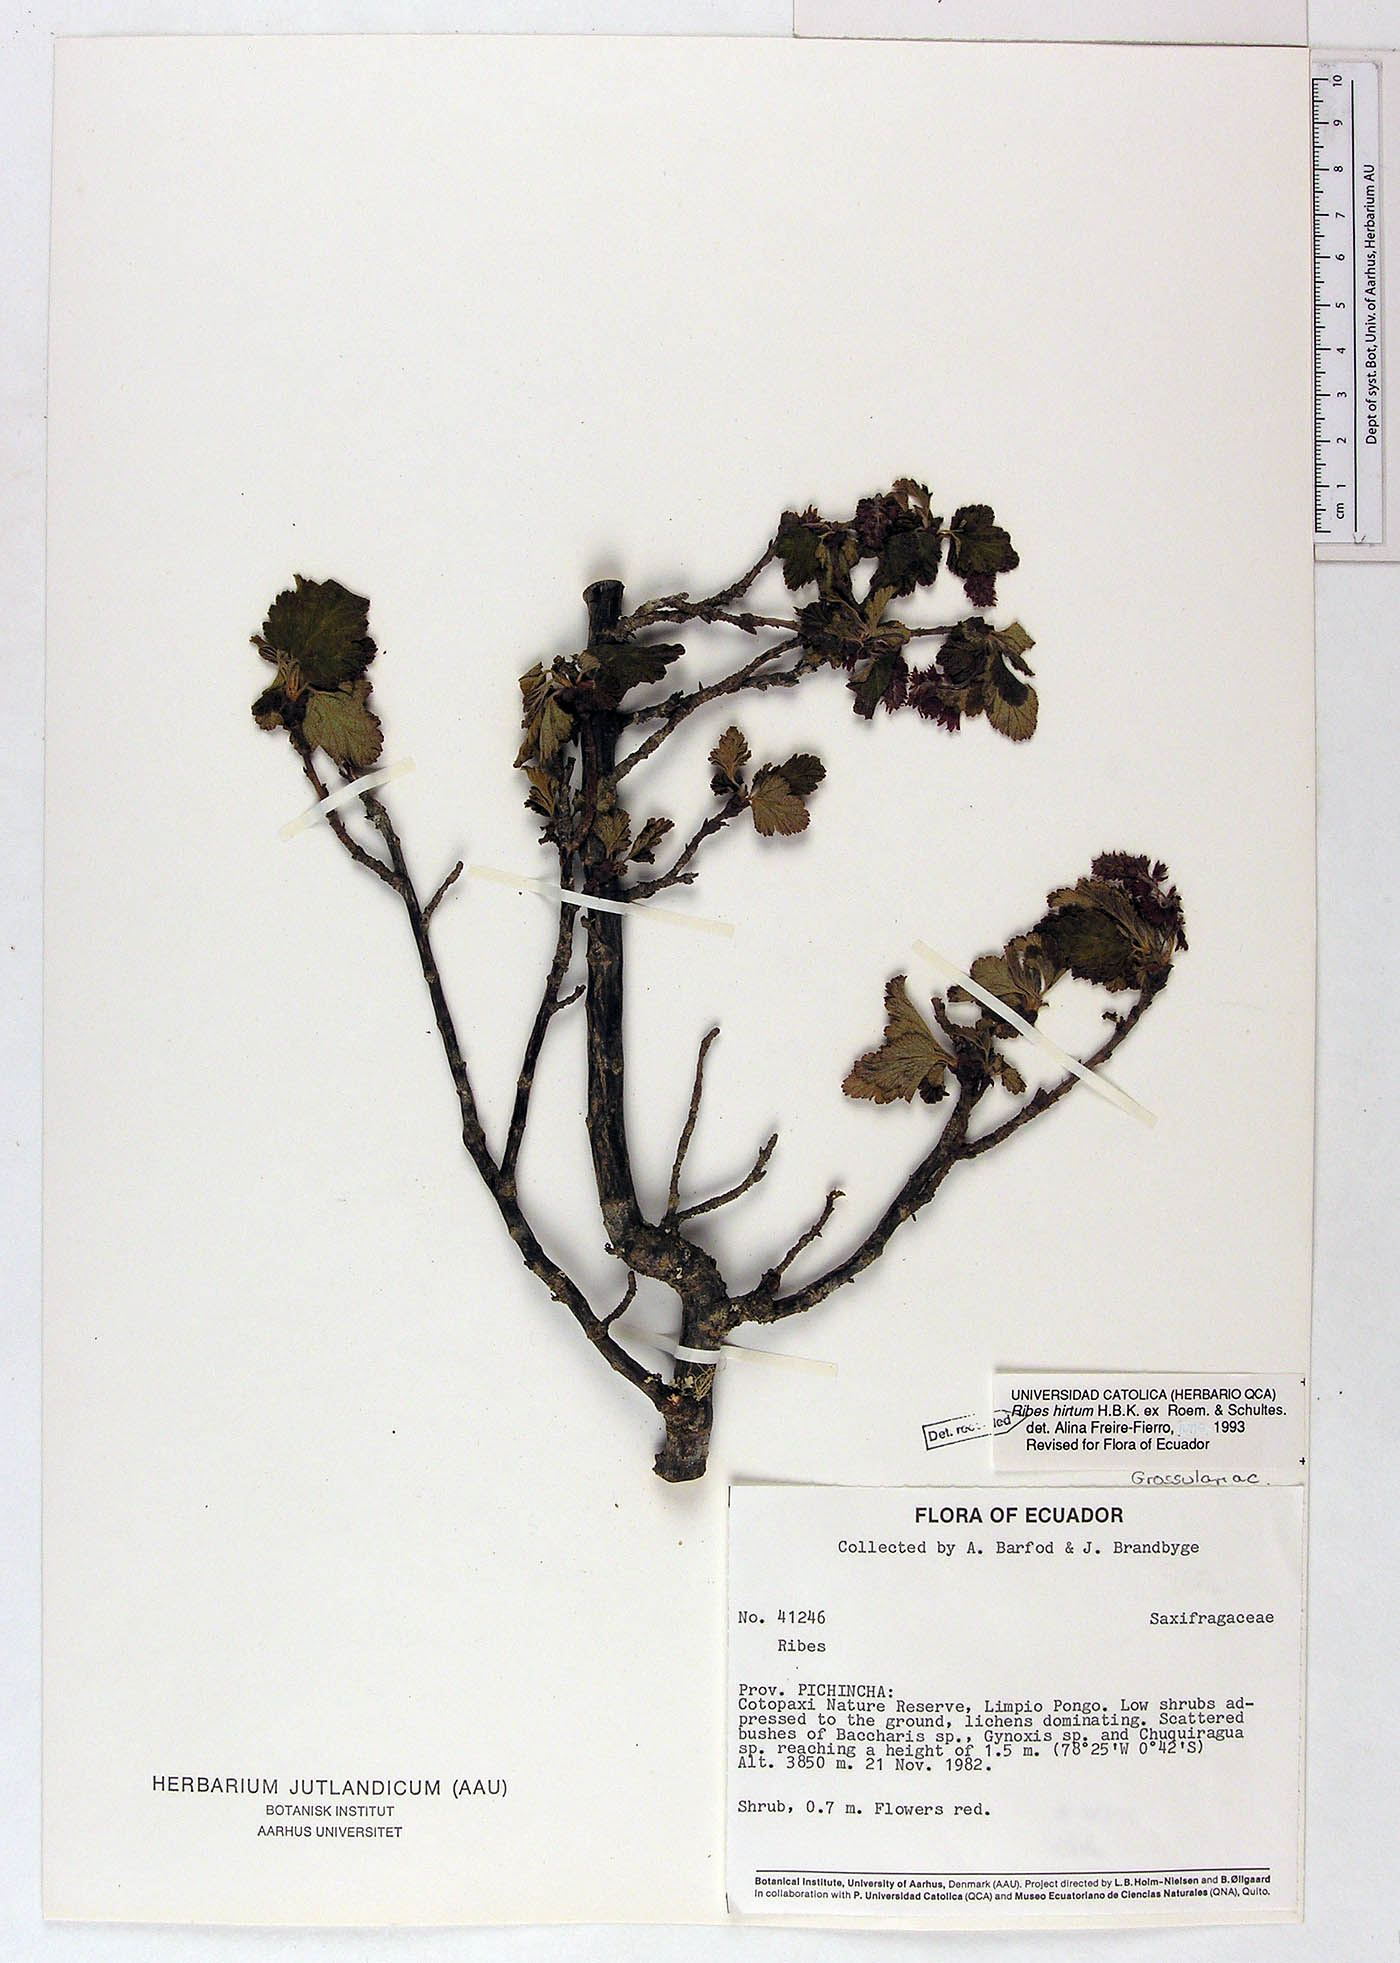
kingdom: Plantae
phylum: Tracheophyta
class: Magnoliopsida
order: Saxifragales
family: Grossulariaceae
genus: Ribes
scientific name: Ribes hirtum
